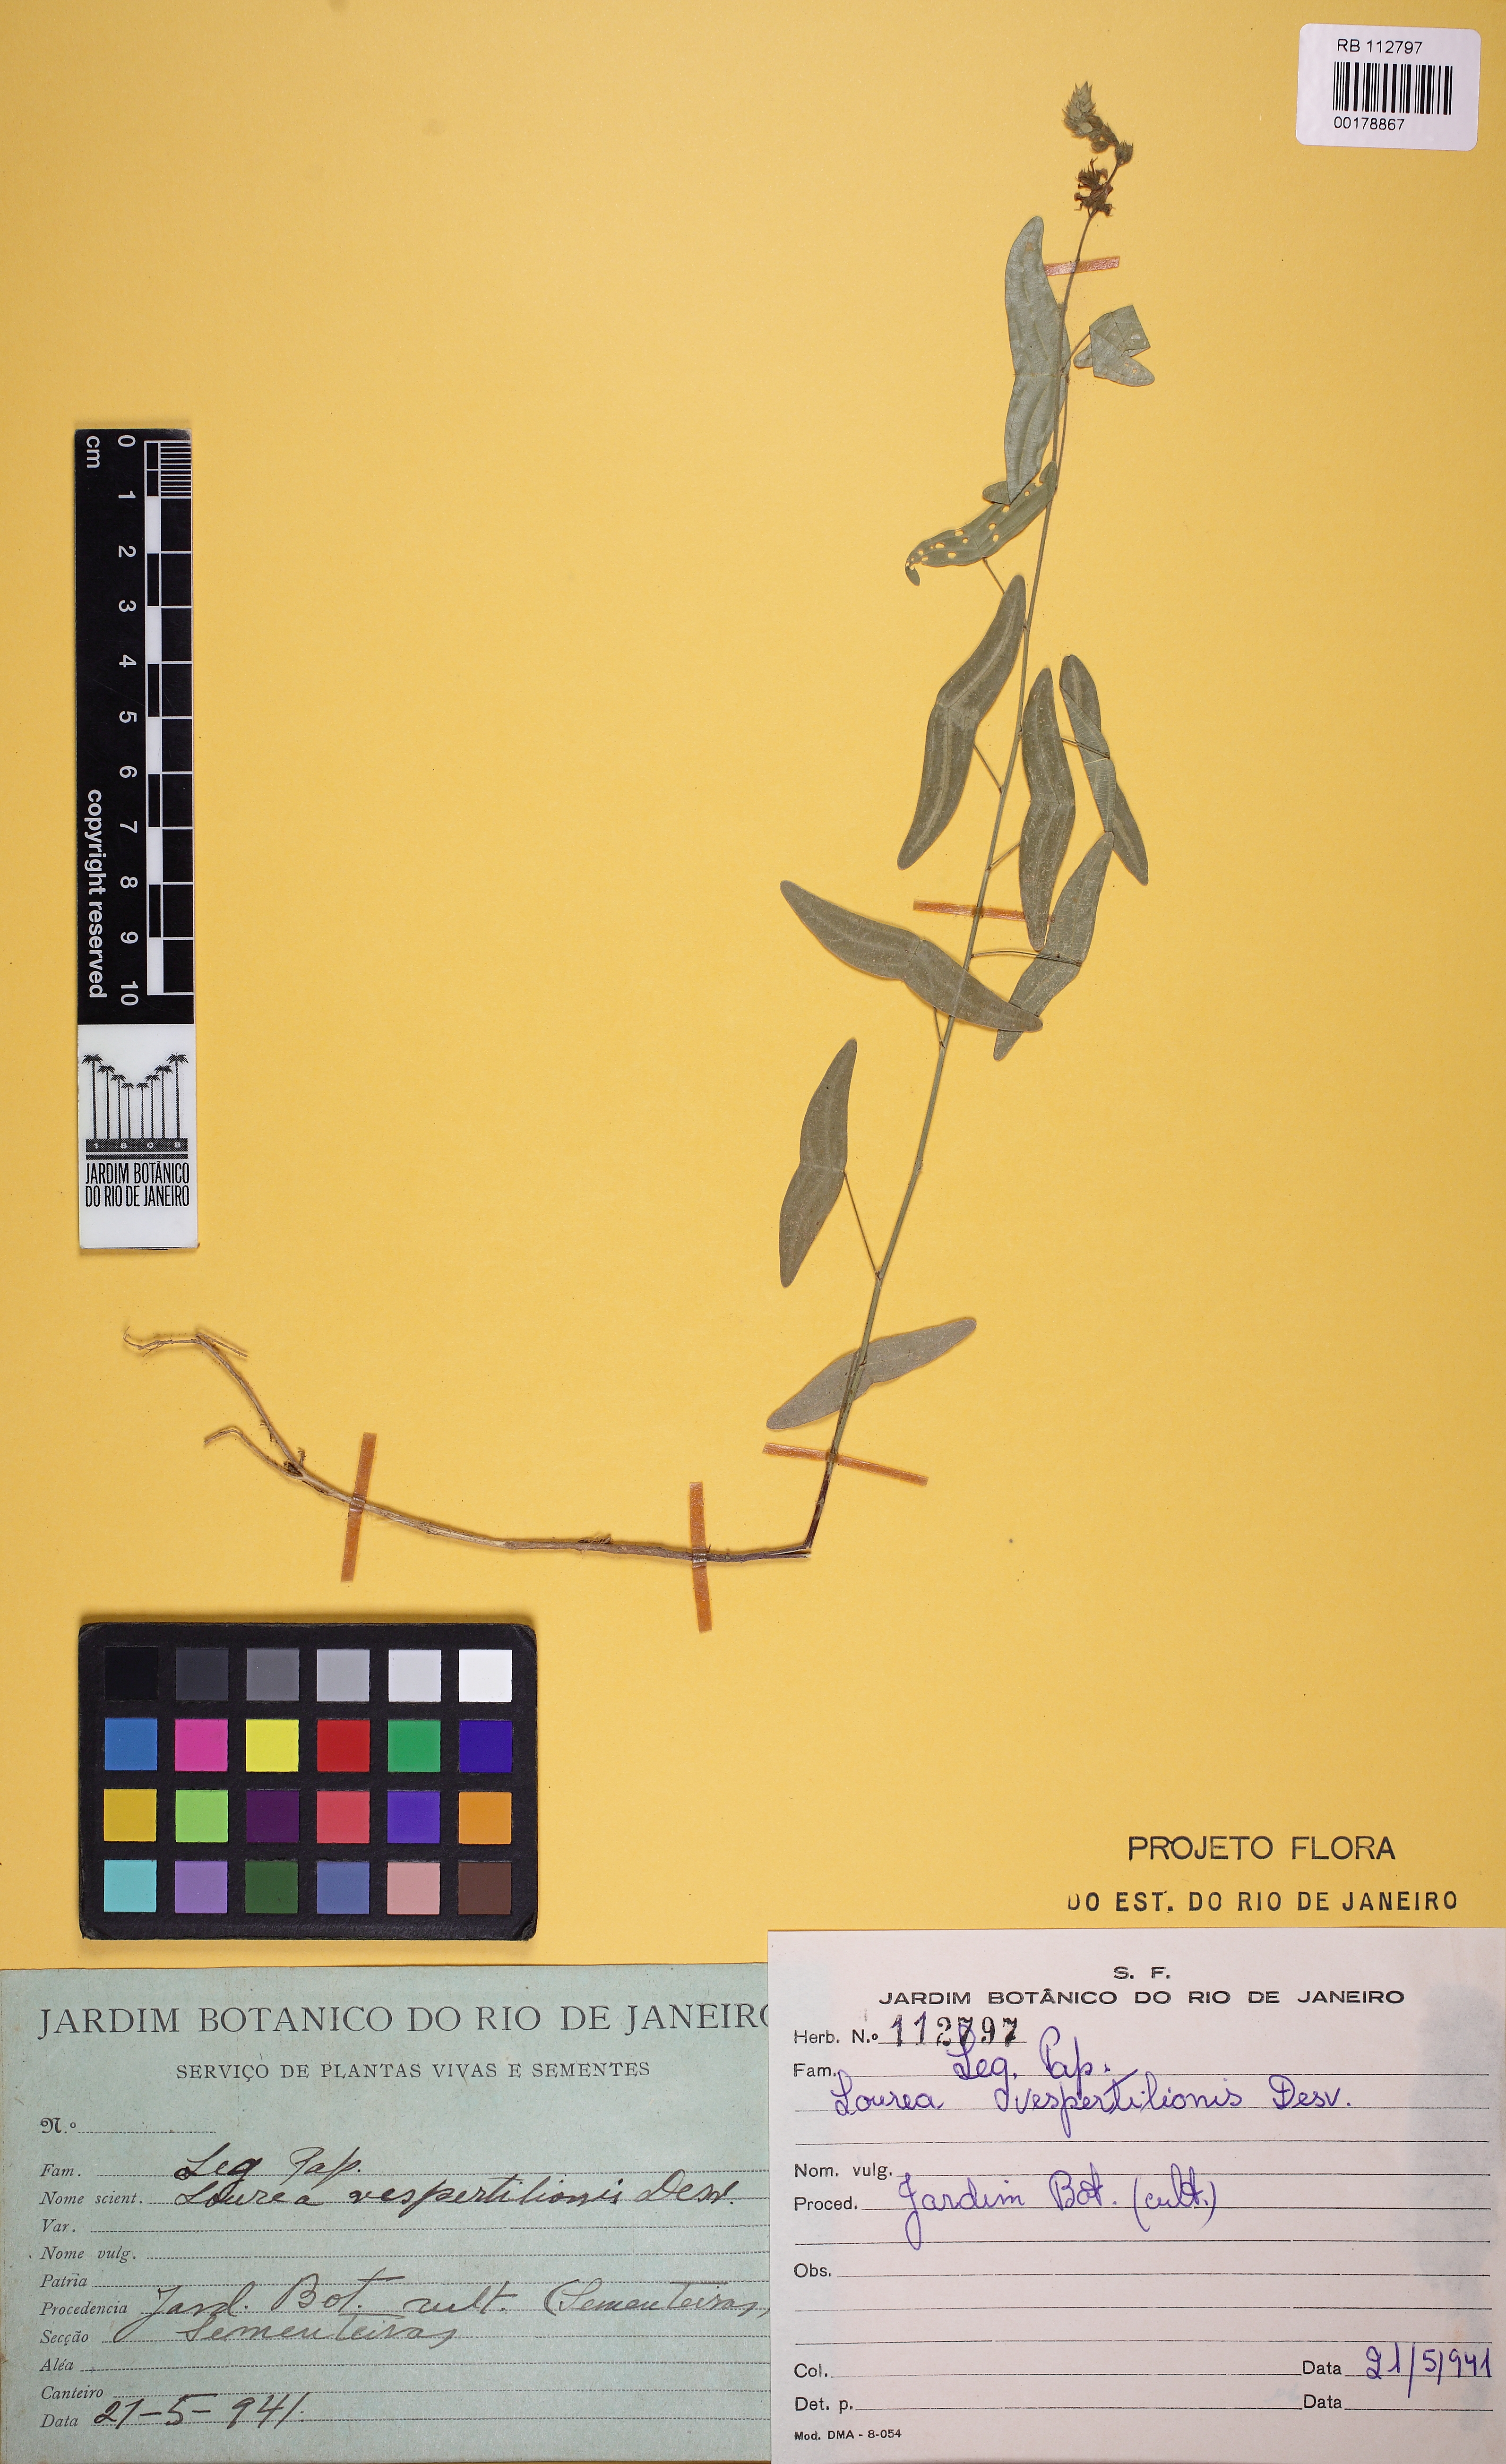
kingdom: Plantae
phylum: Tracheophyta
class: Magnoliopsida
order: Fabales
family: Fabaceae
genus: Christia
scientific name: Christia vespertilionis
